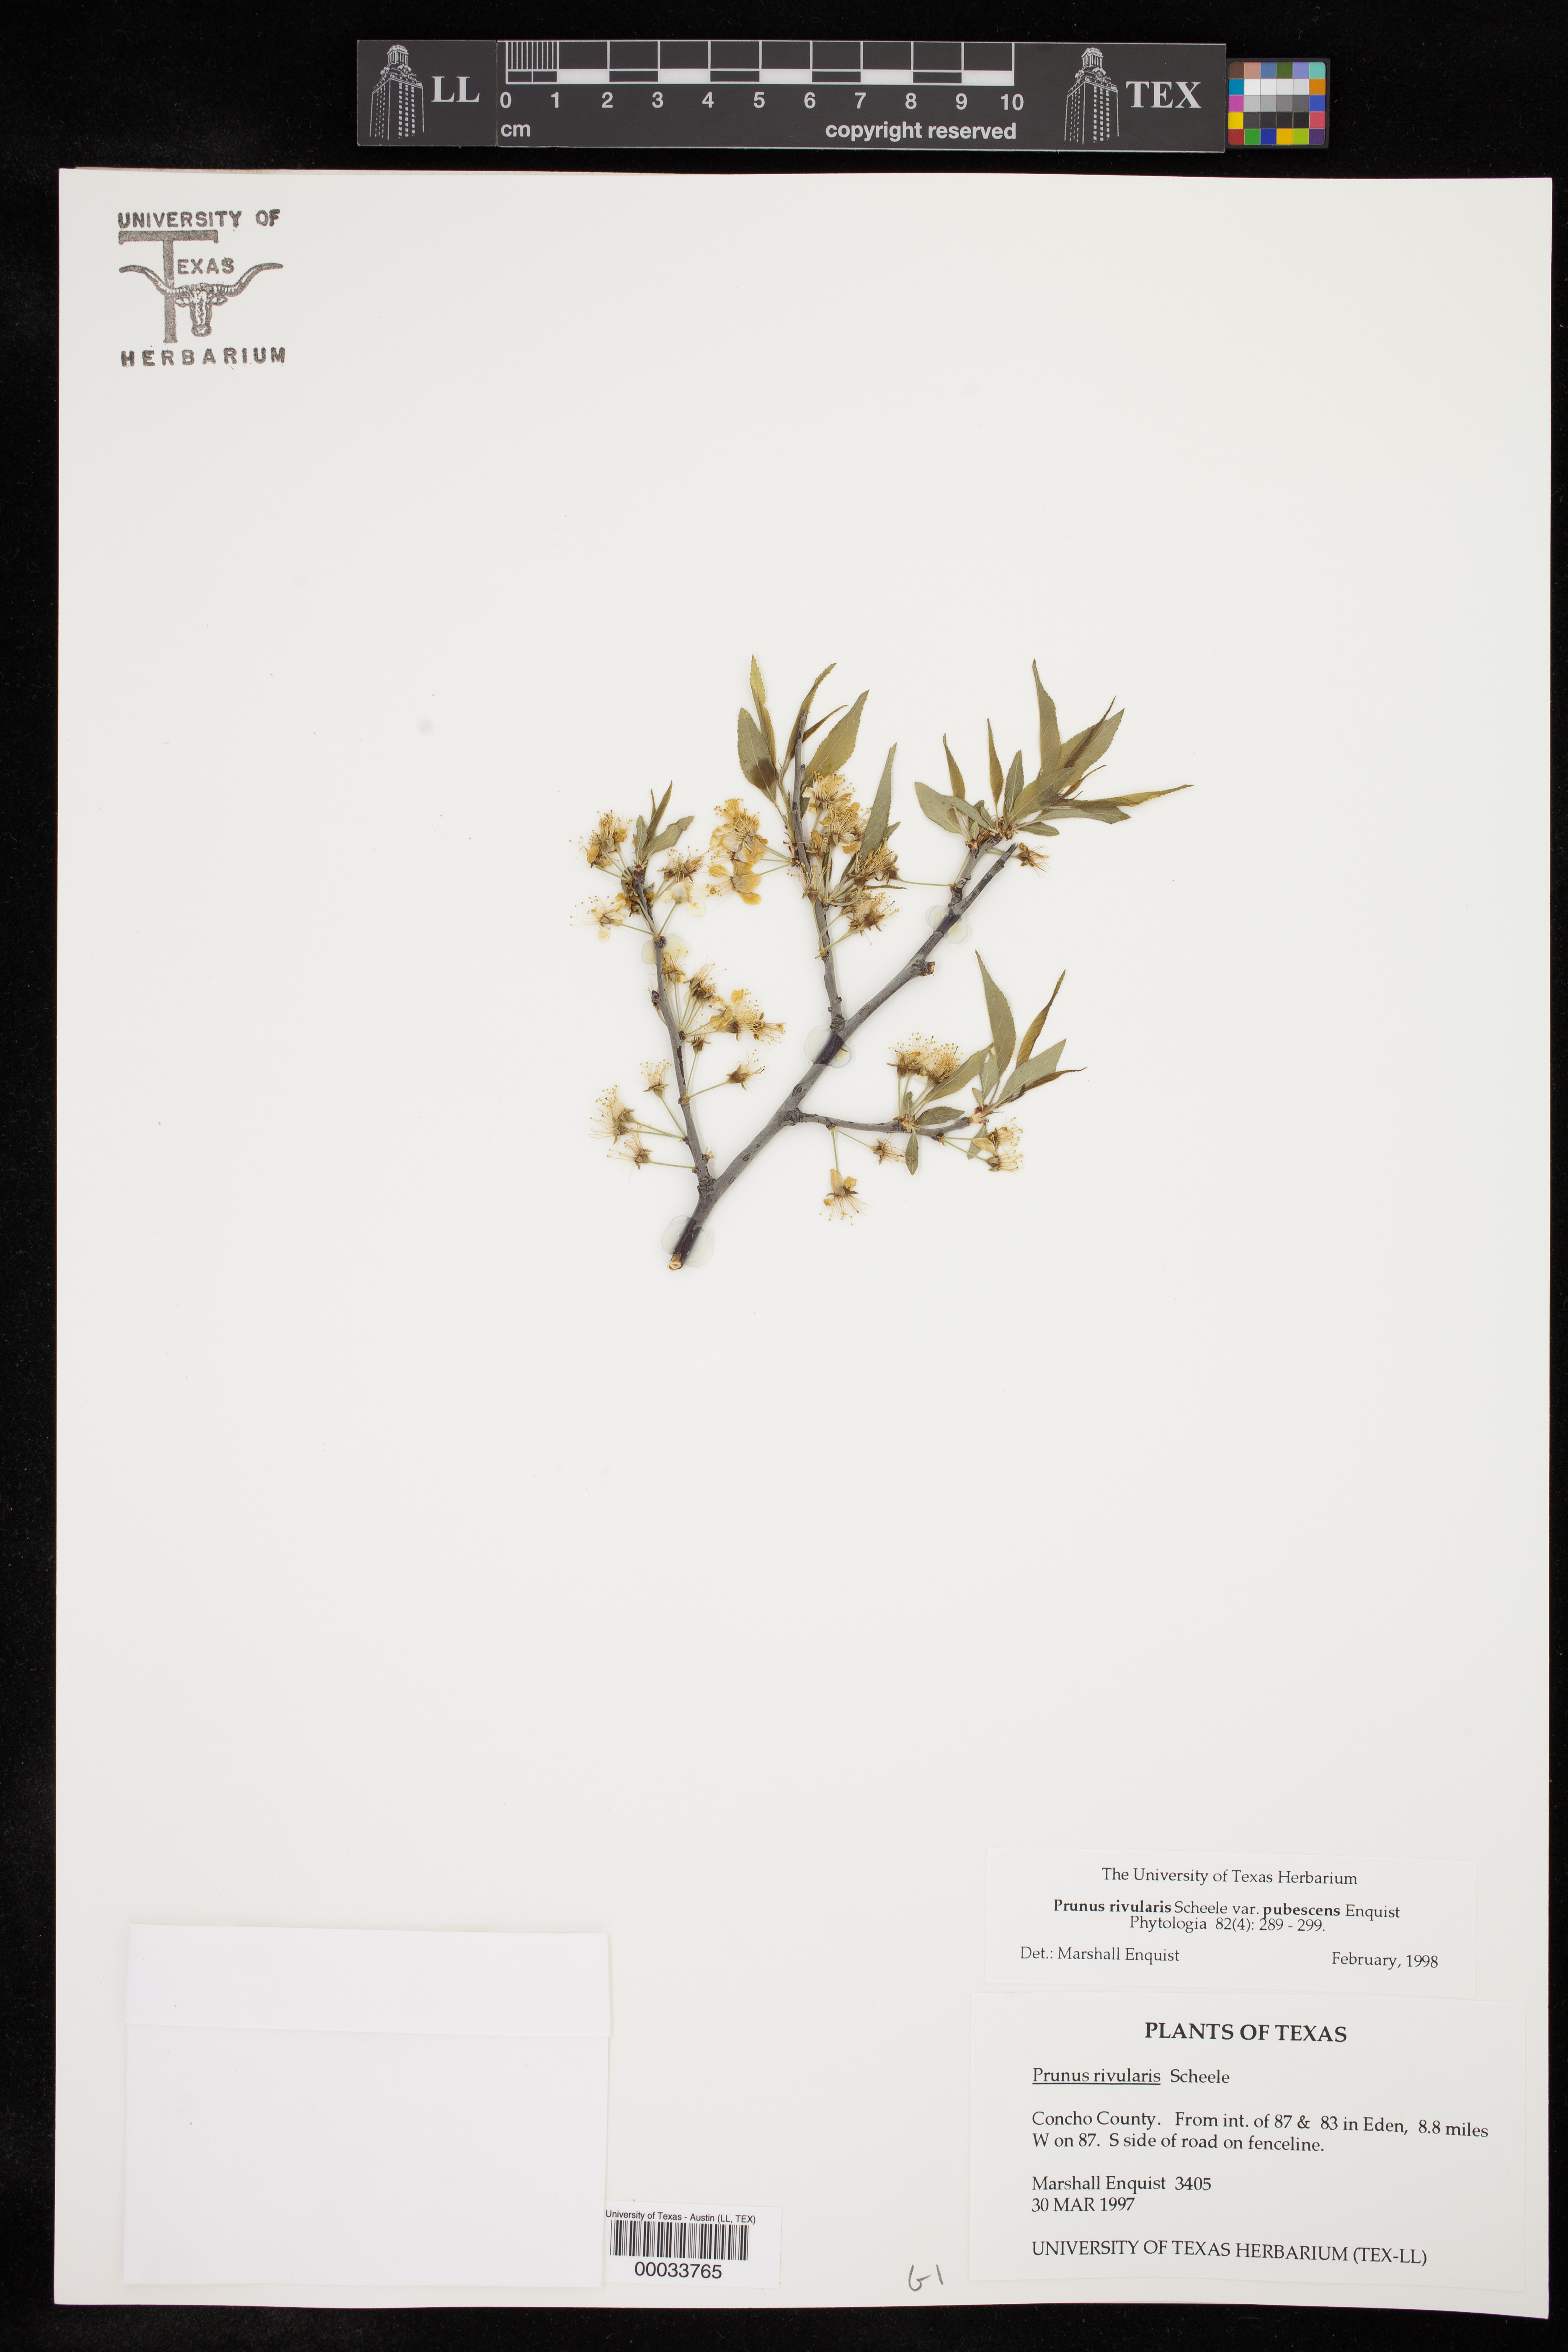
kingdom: Plantae
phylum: Tracheophyta
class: Magnoliopsida
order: Rosales
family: Rosaceae
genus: Prunus
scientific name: Prunus rivularis
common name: Creek plum
